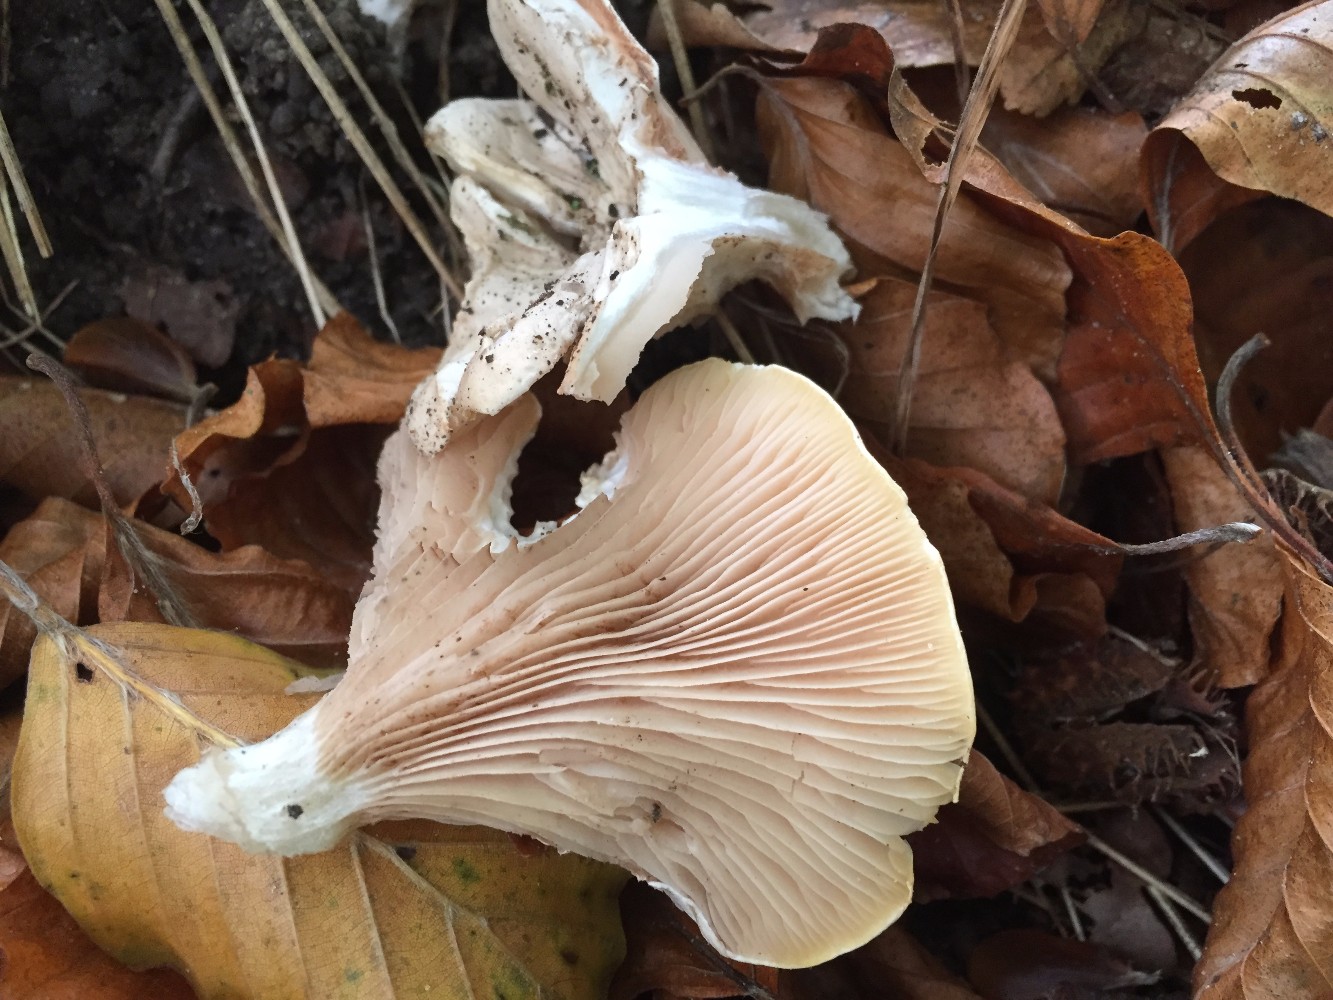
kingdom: Fungi
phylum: Basidiomycota
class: Agaricomycetes
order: Agaricales
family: Entolomataceae
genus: Clitopilus
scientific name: Clitopilus prunulus
